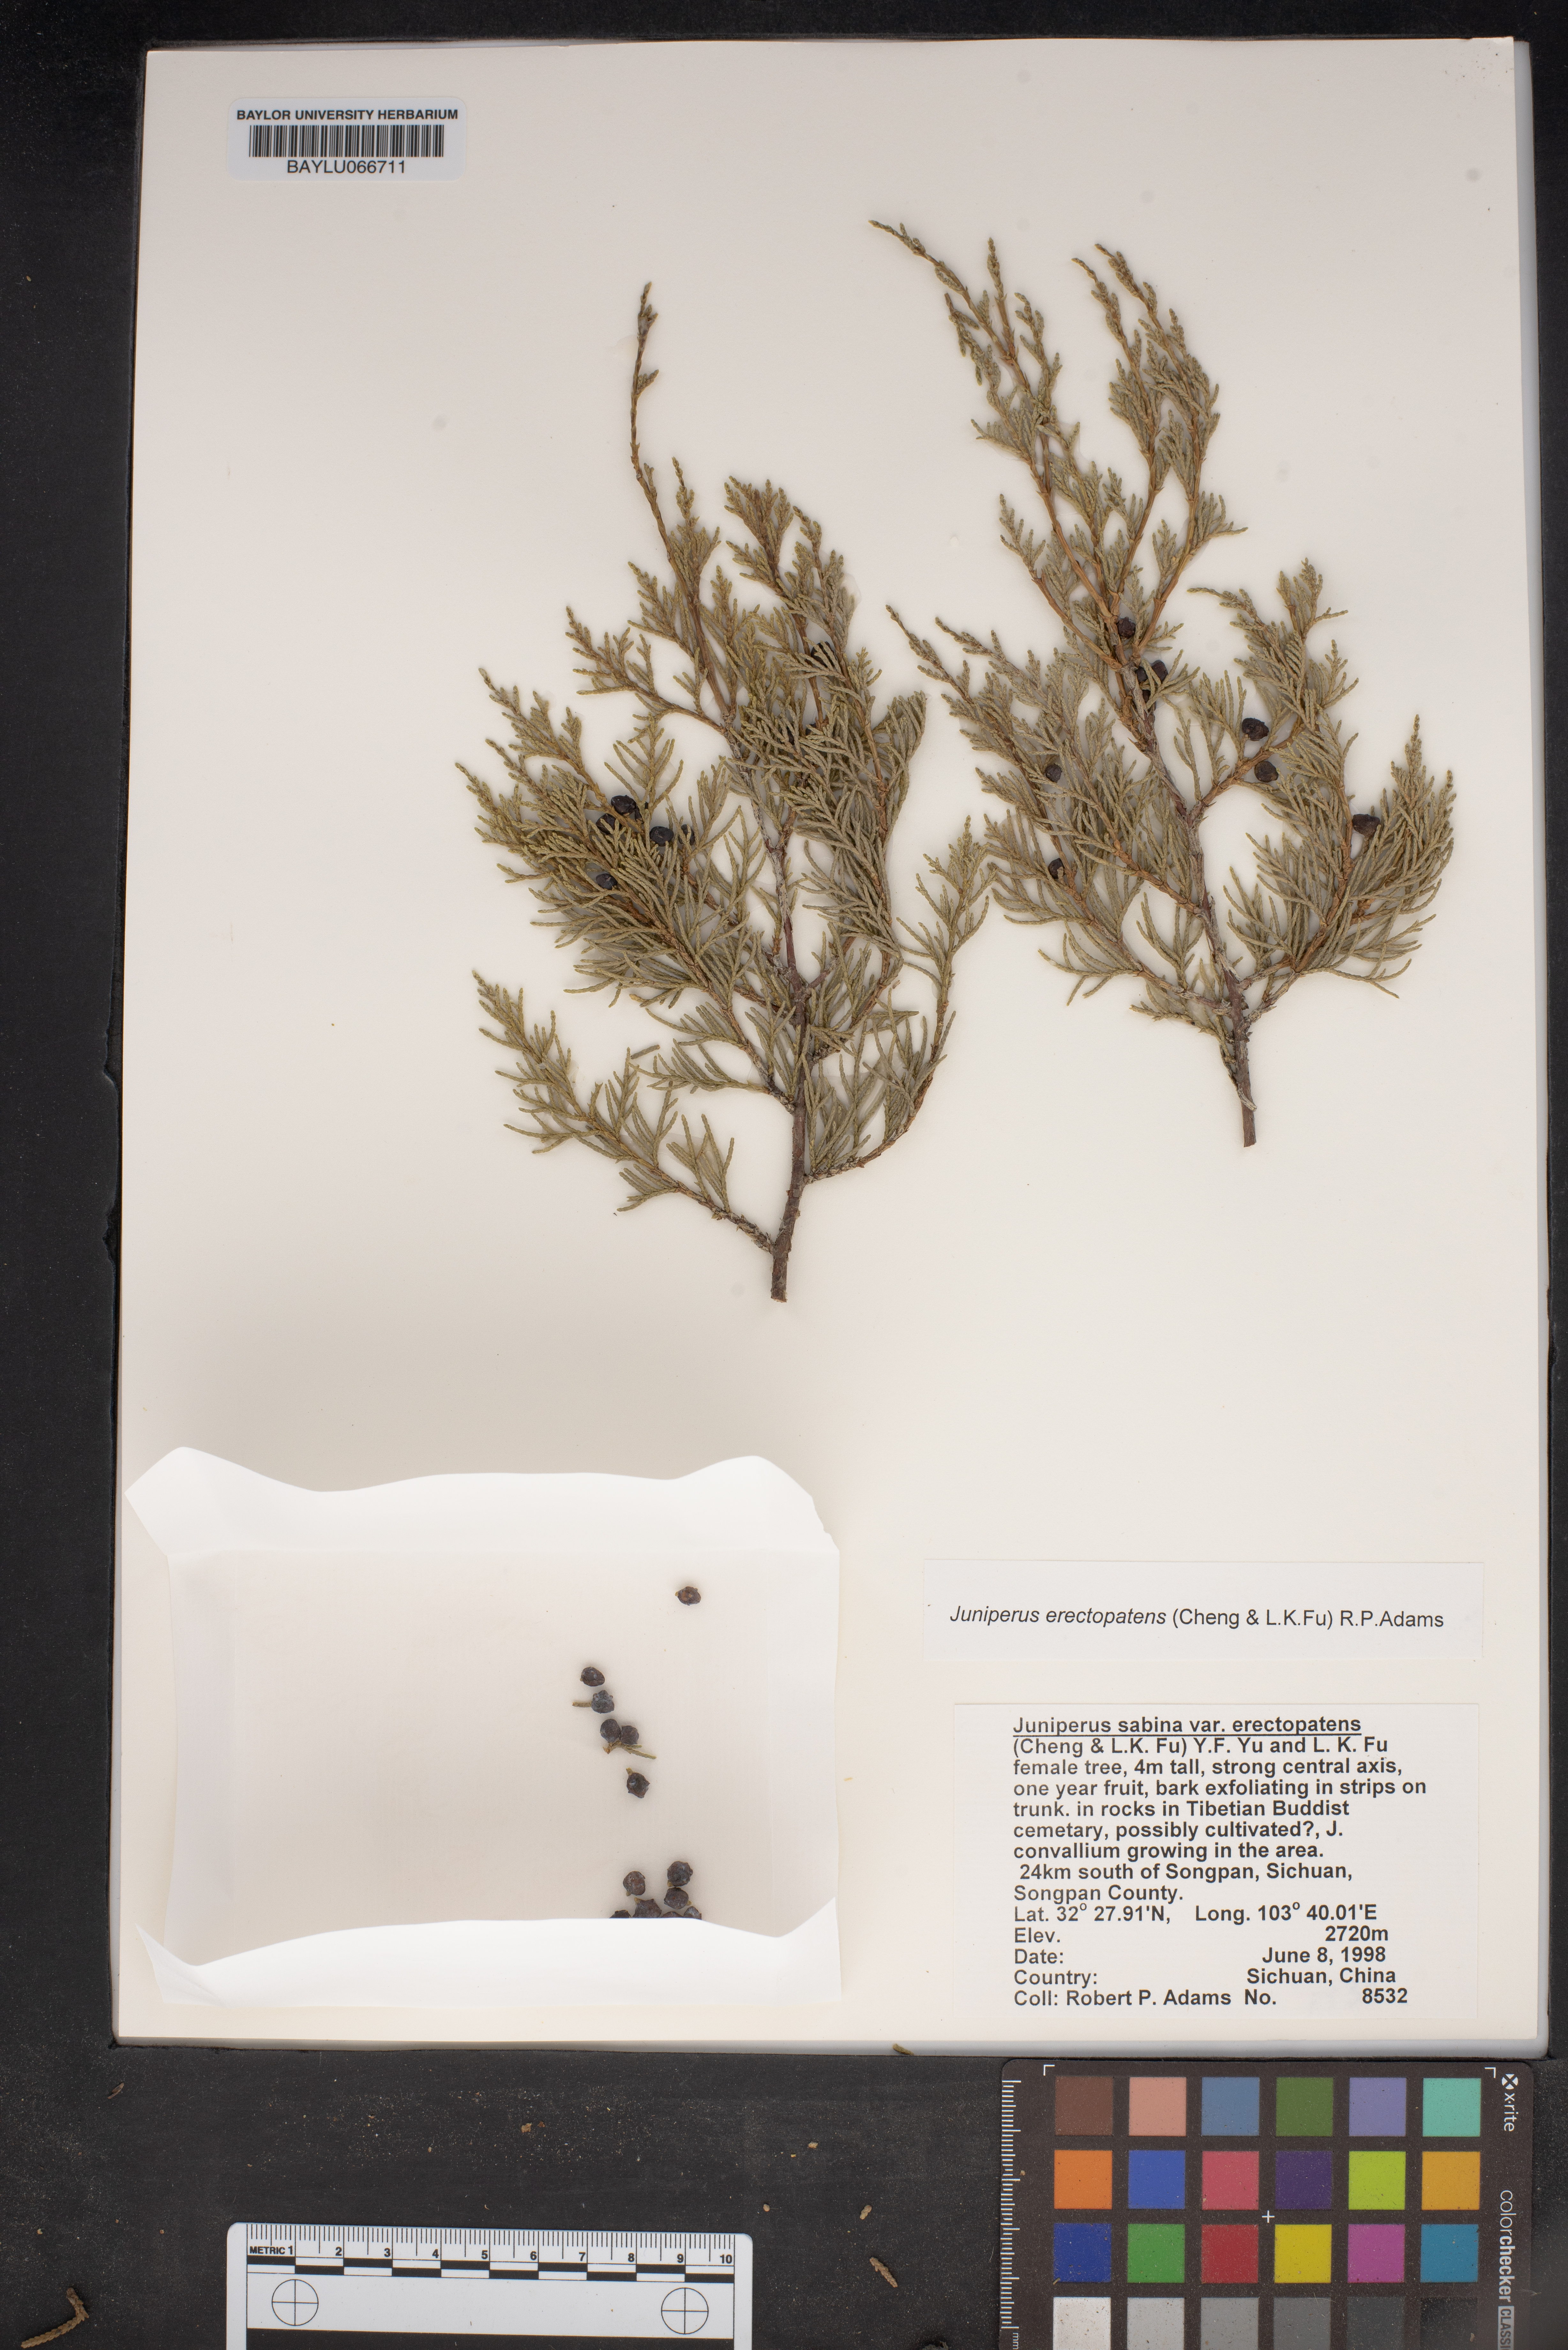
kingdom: Plantae
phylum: Tracheophyta
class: Pinopsida
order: Pinales
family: Cupressaceae
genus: Juniperus
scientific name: Juniperus chinensis
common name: Chinese juniper
